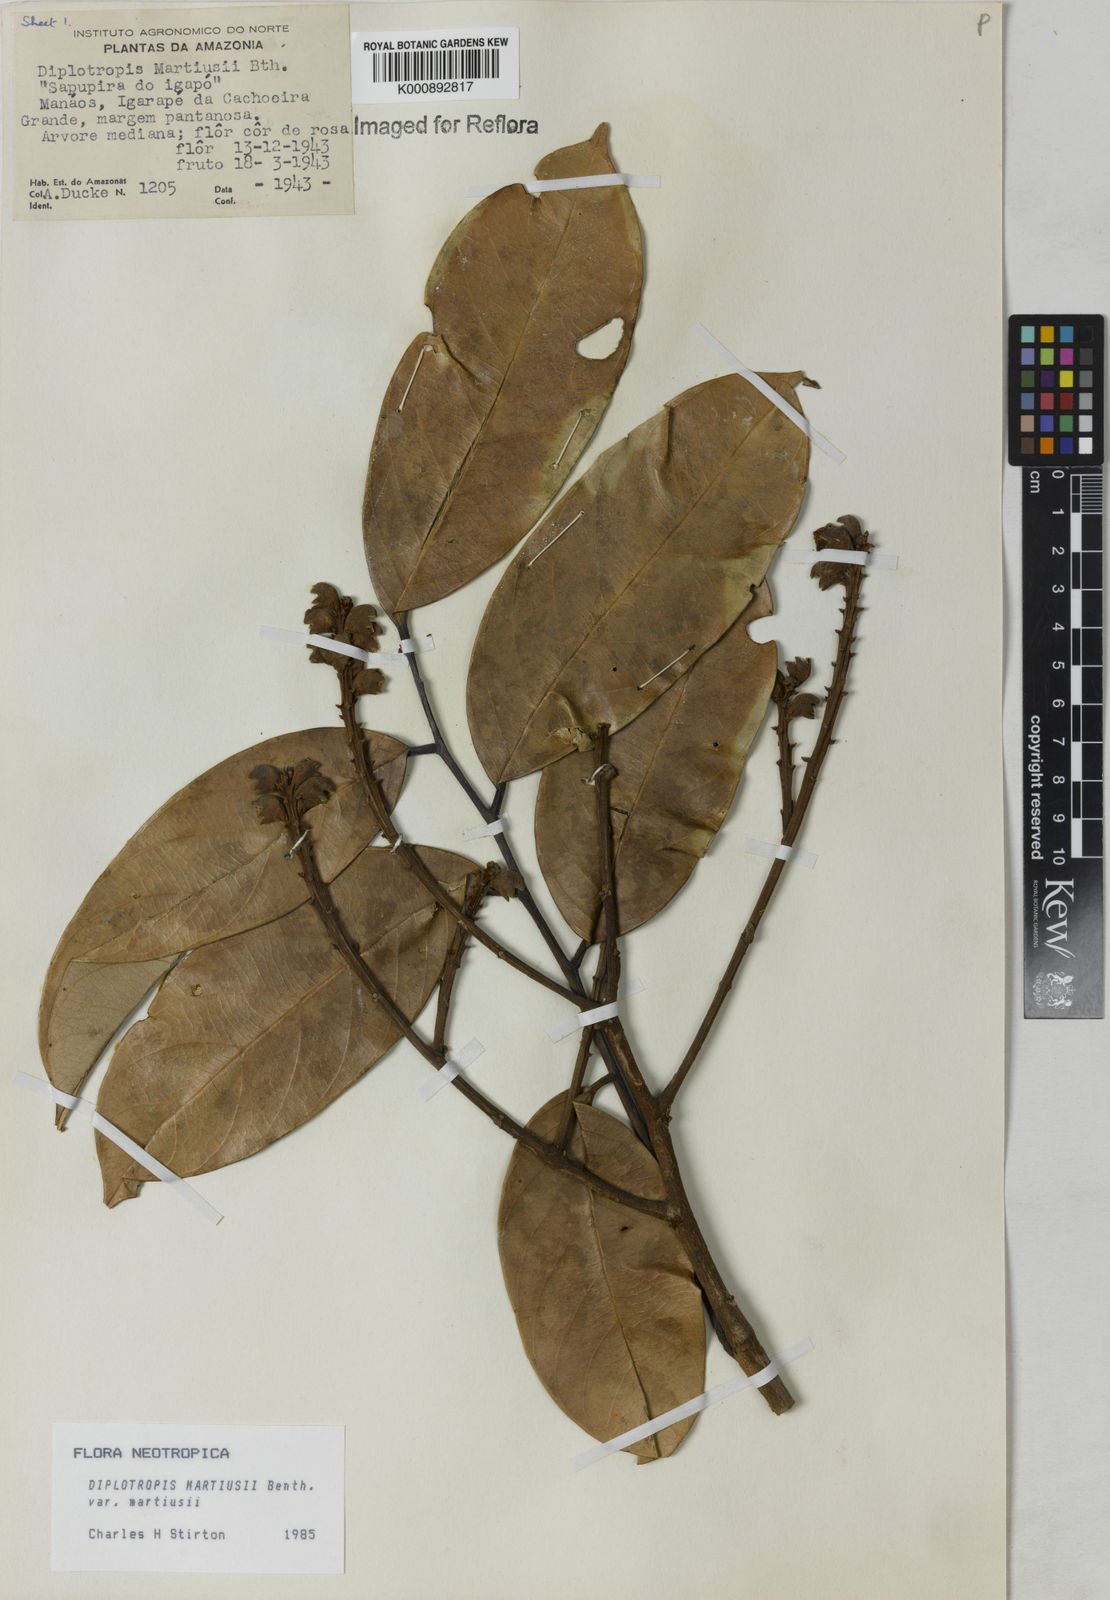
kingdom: Plantae
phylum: Tracheophyta
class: Magnoliopsida
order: Fabales
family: Fabaceae
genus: Diplotropis
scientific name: Diplotropis
